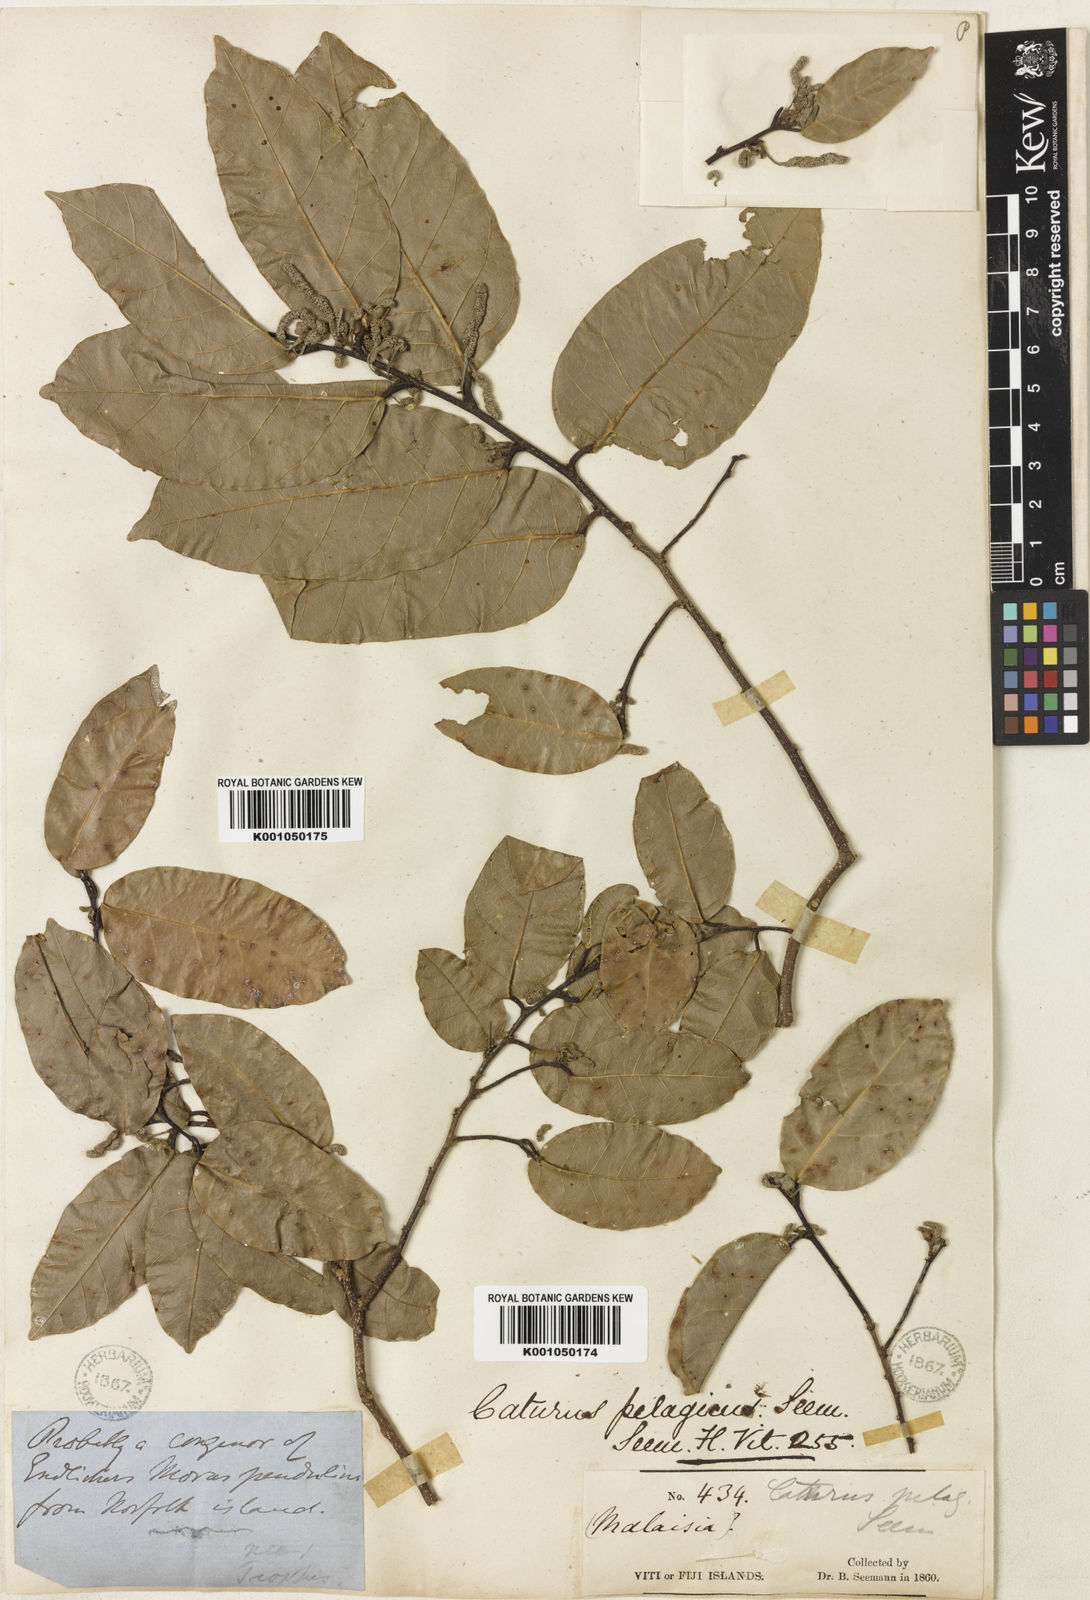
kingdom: Plantae
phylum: Tracheophyta
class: Magnoliopsida
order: Rosales
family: Moraceae
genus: Malaisia
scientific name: Malaisia scandens
